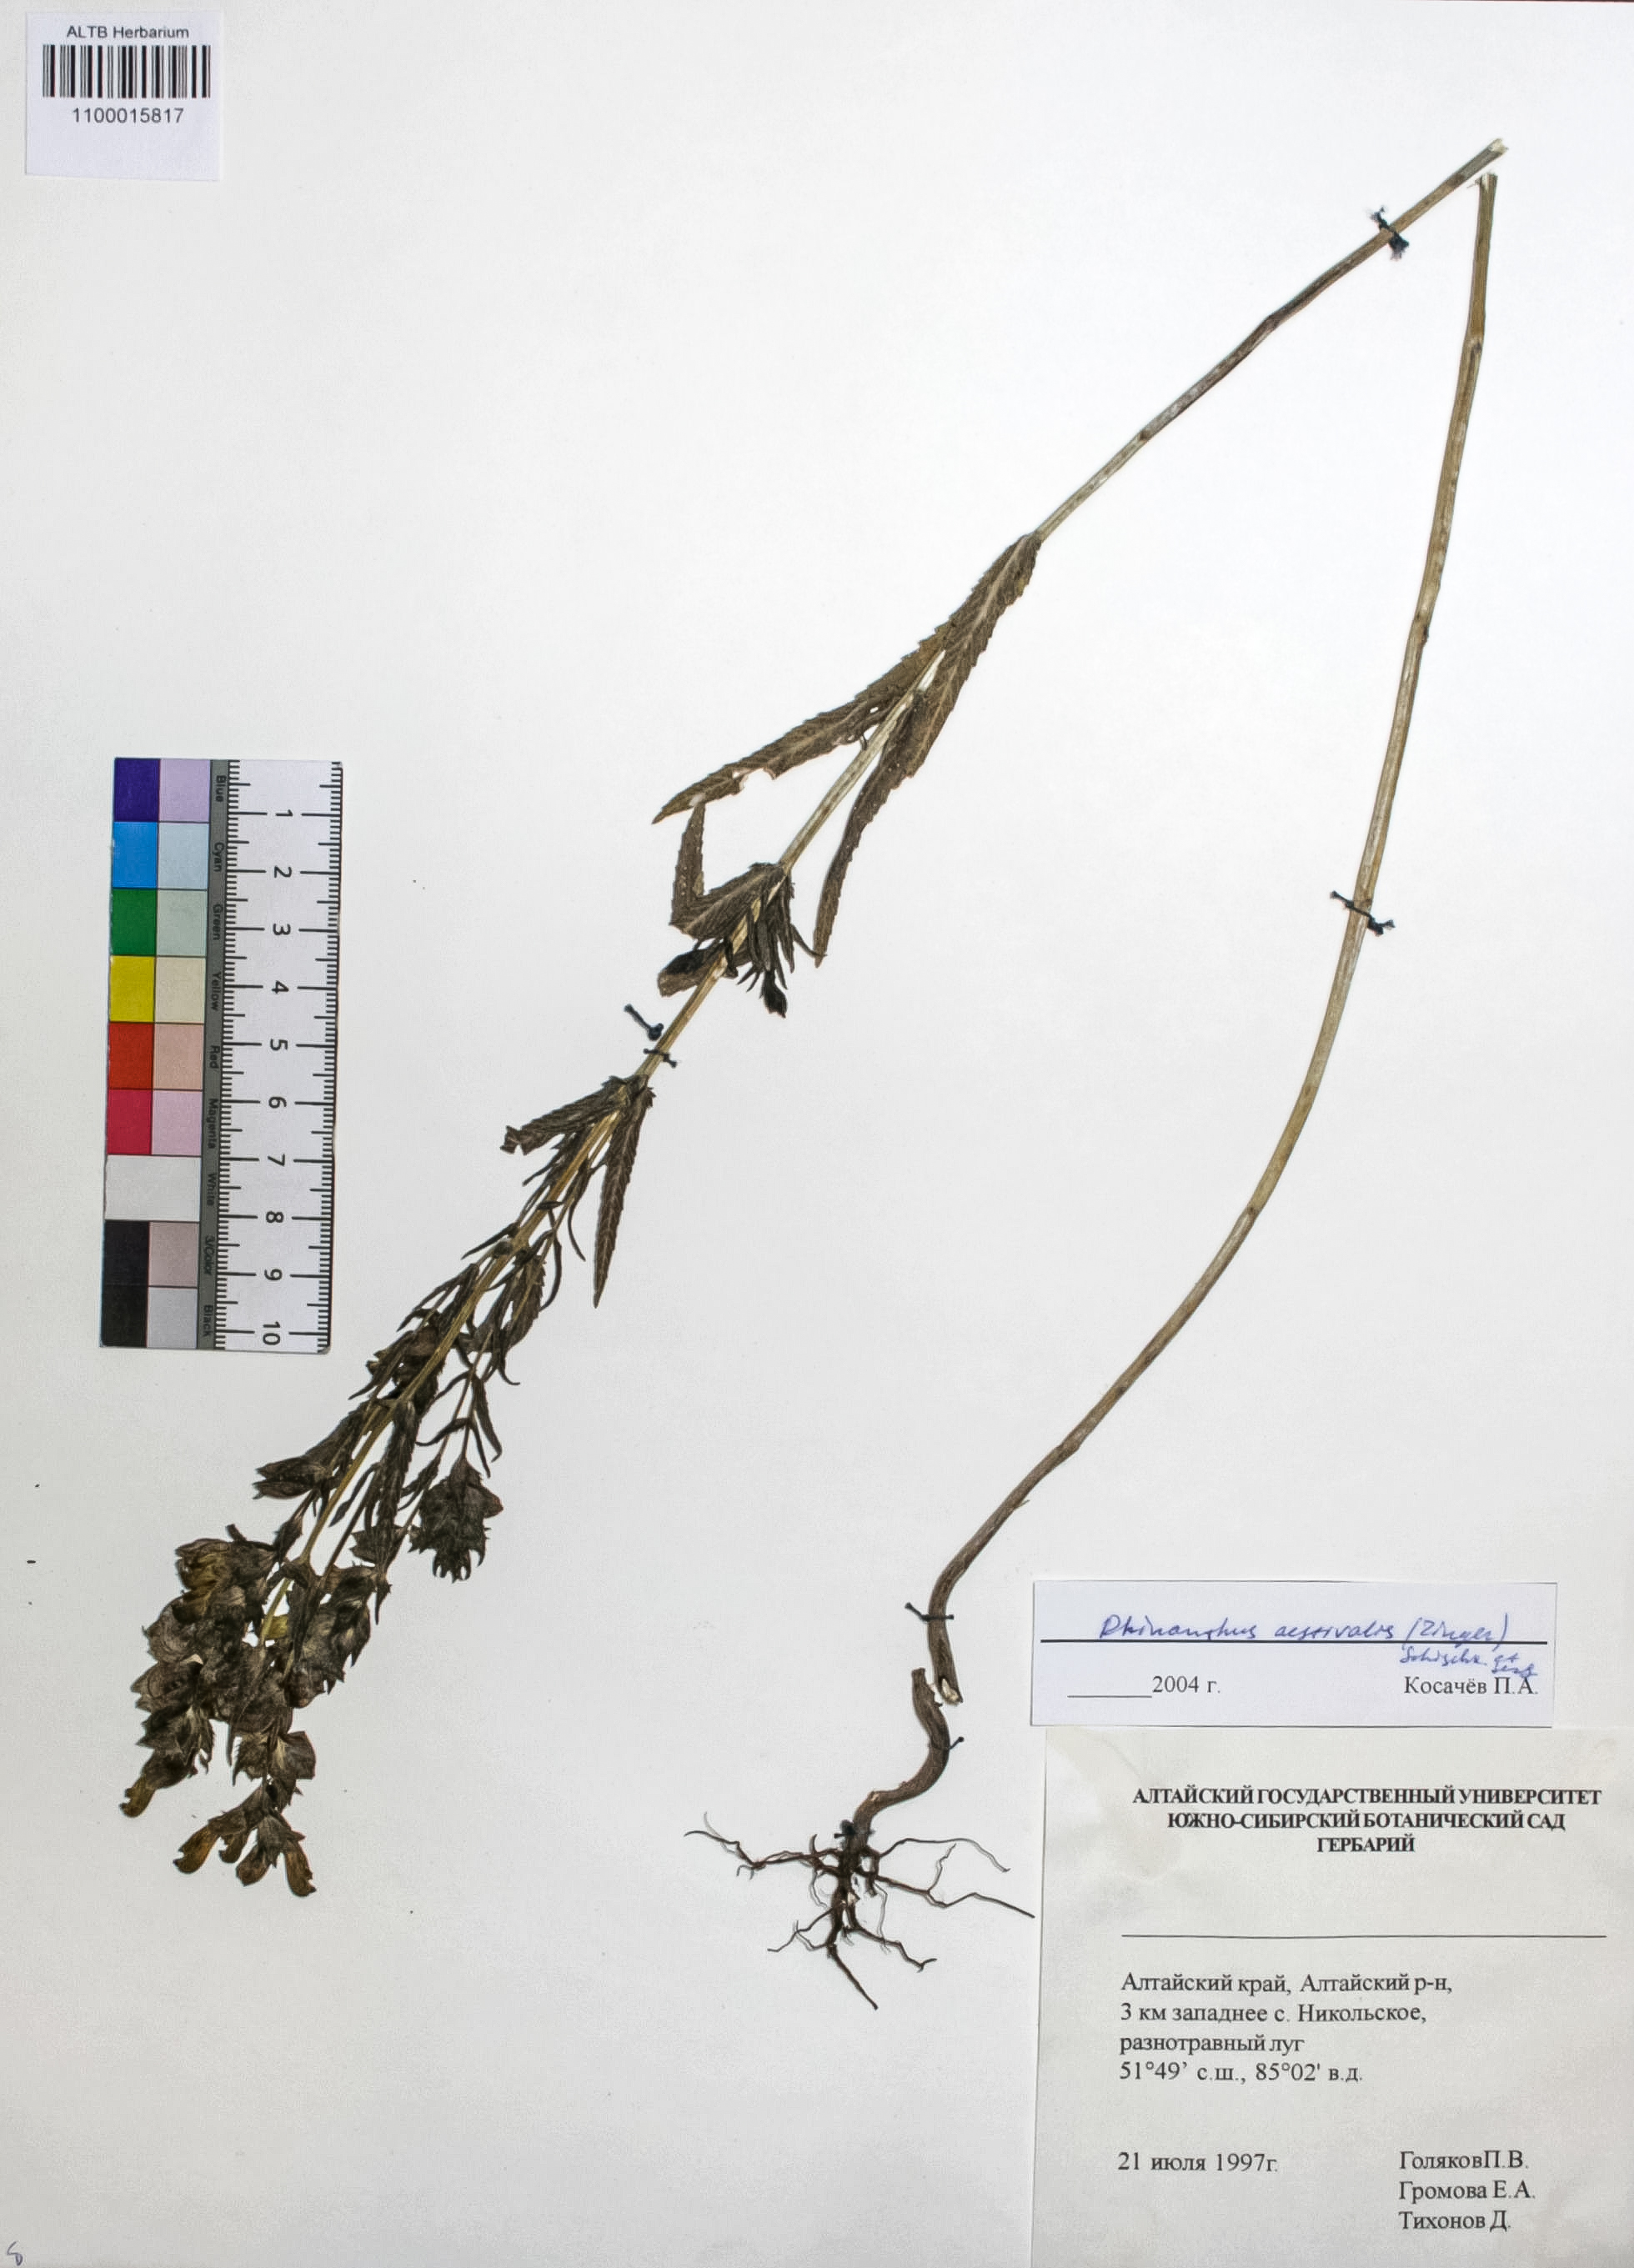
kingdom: Plantae
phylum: Tracheophyta
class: Magnoliopsida
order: Lamiales
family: Orobanchaceae
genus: Rhinanthus
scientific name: Rhinanthus serotinus
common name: Late-flowering yellow rattle
